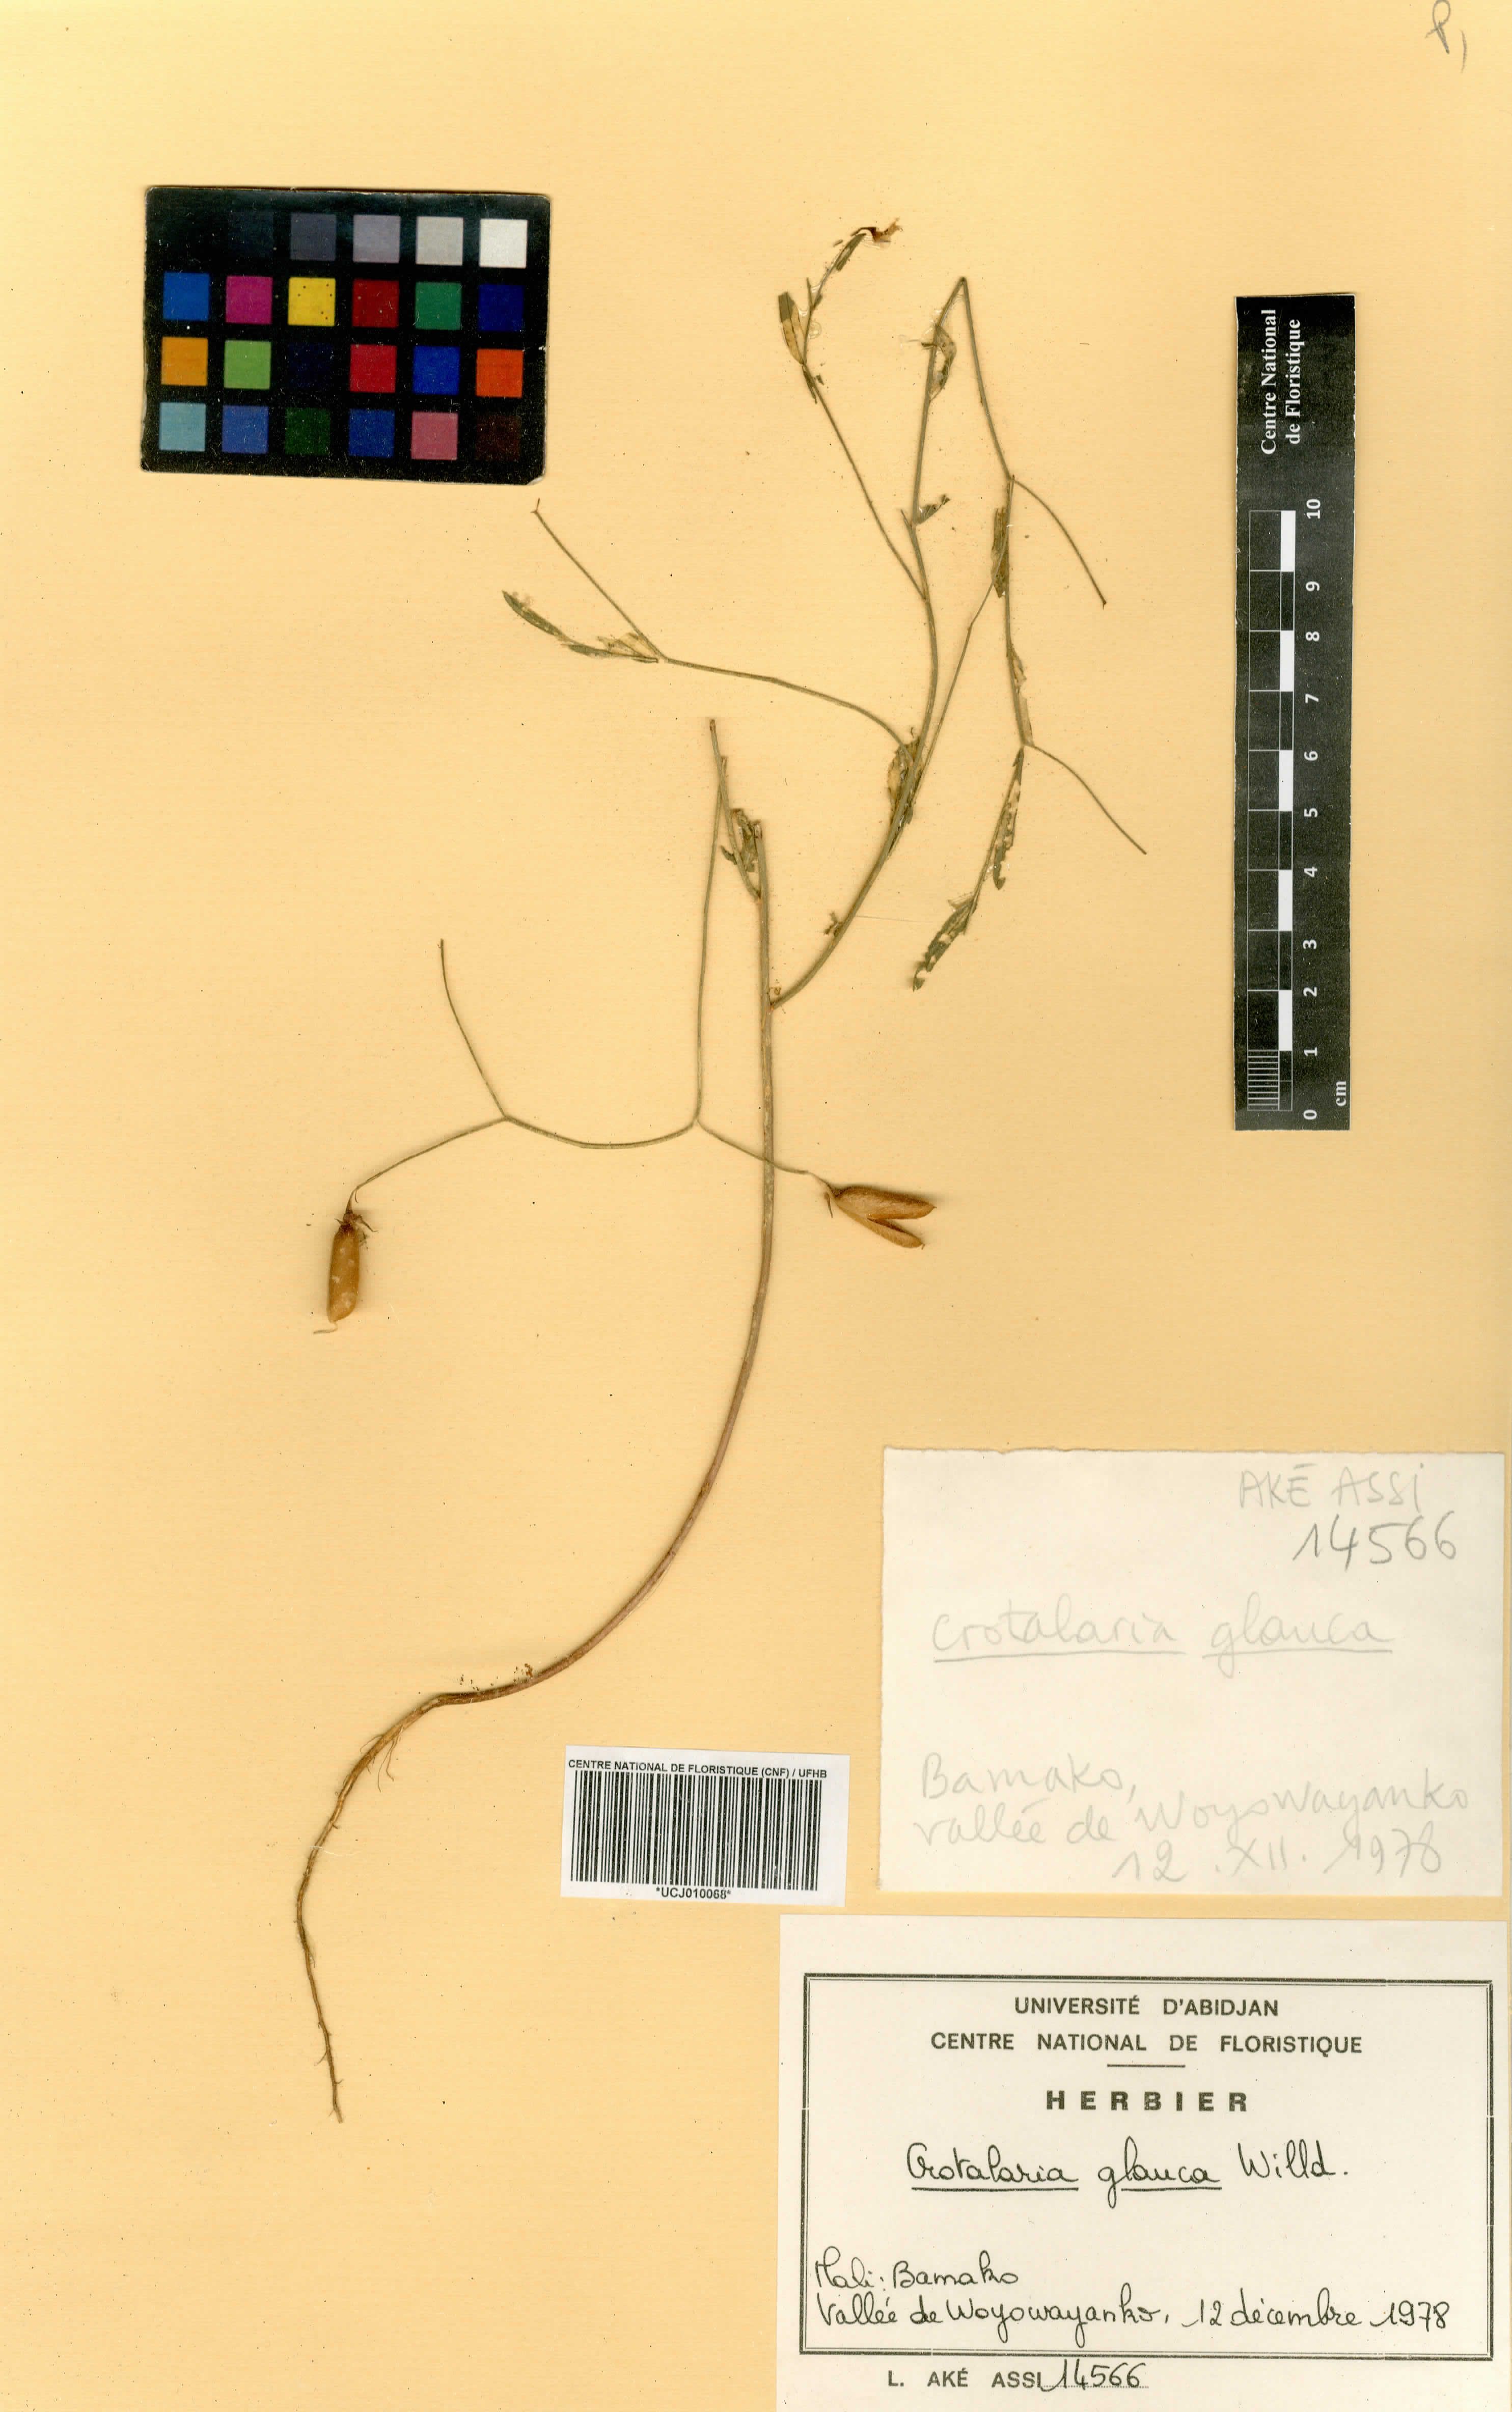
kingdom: Plantae
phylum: Tracheophyta
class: Magnoliopsida
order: Fabales
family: Fabaceae
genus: Crotalaria
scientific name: Crotalaria glauca
